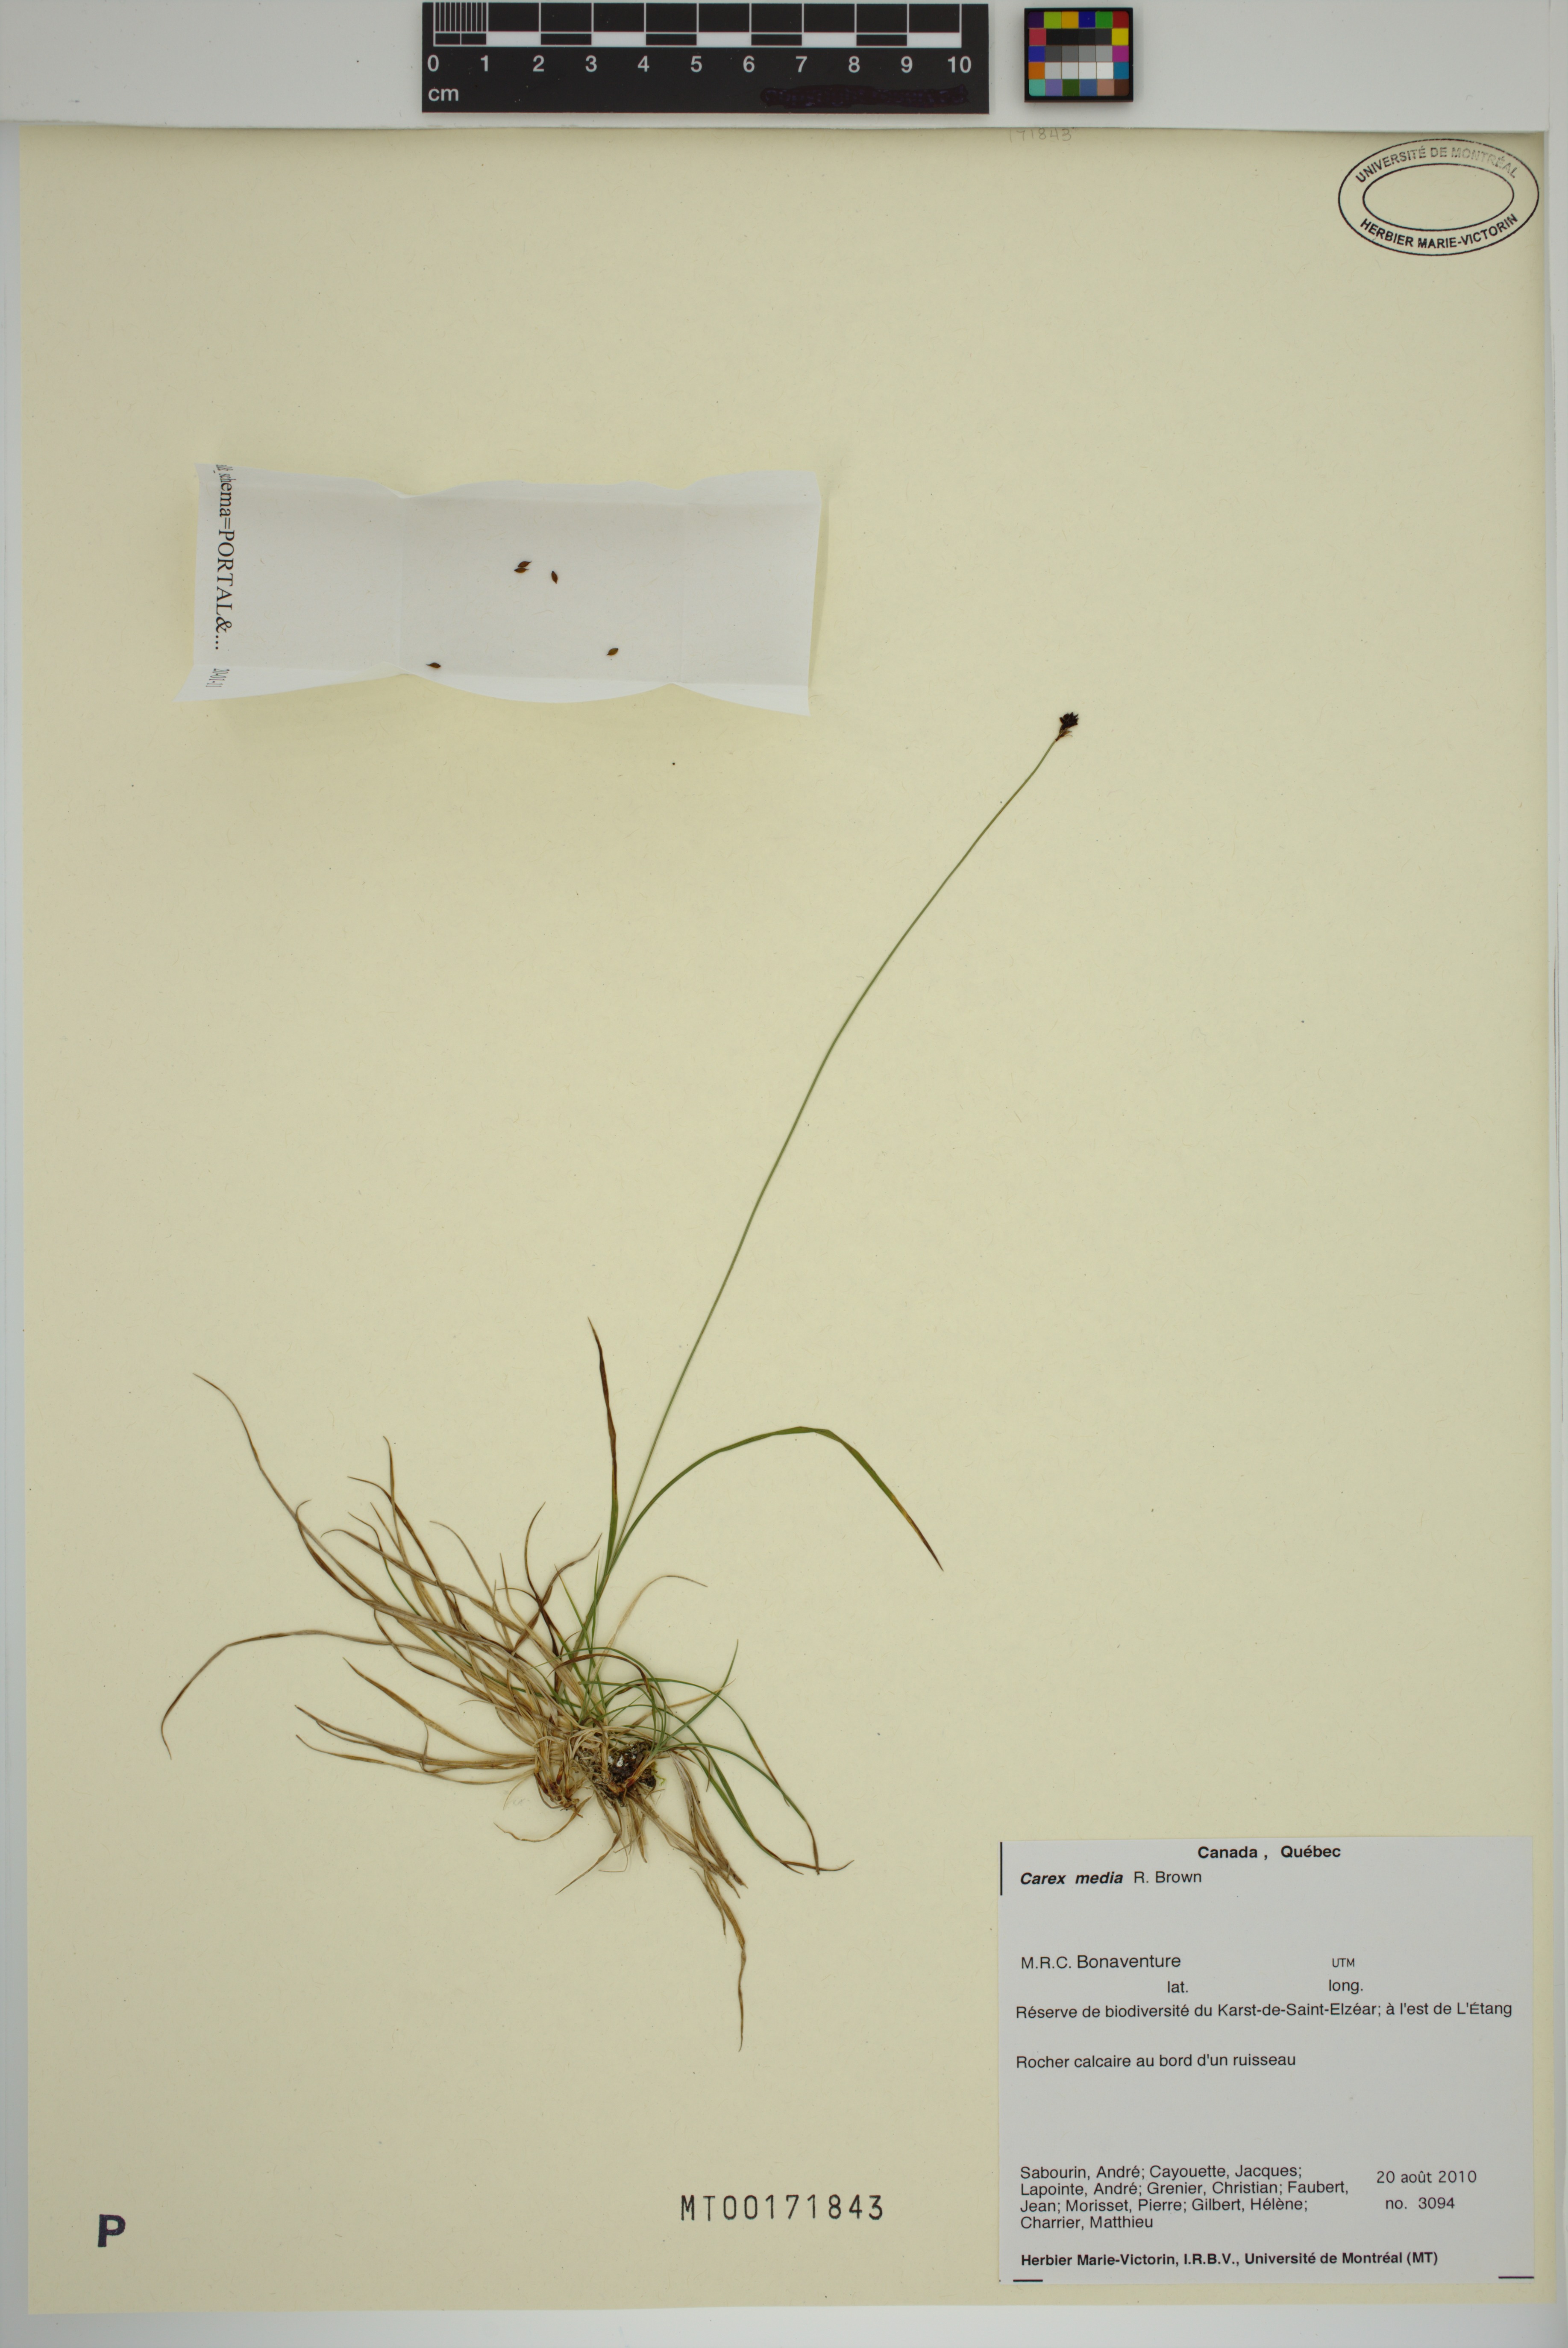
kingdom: Plantae
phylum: Tracheophyta
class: Liliopsida
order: Poales
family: Cyperaceae
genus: Carex
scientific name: Carex media
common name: Alpine sedge
